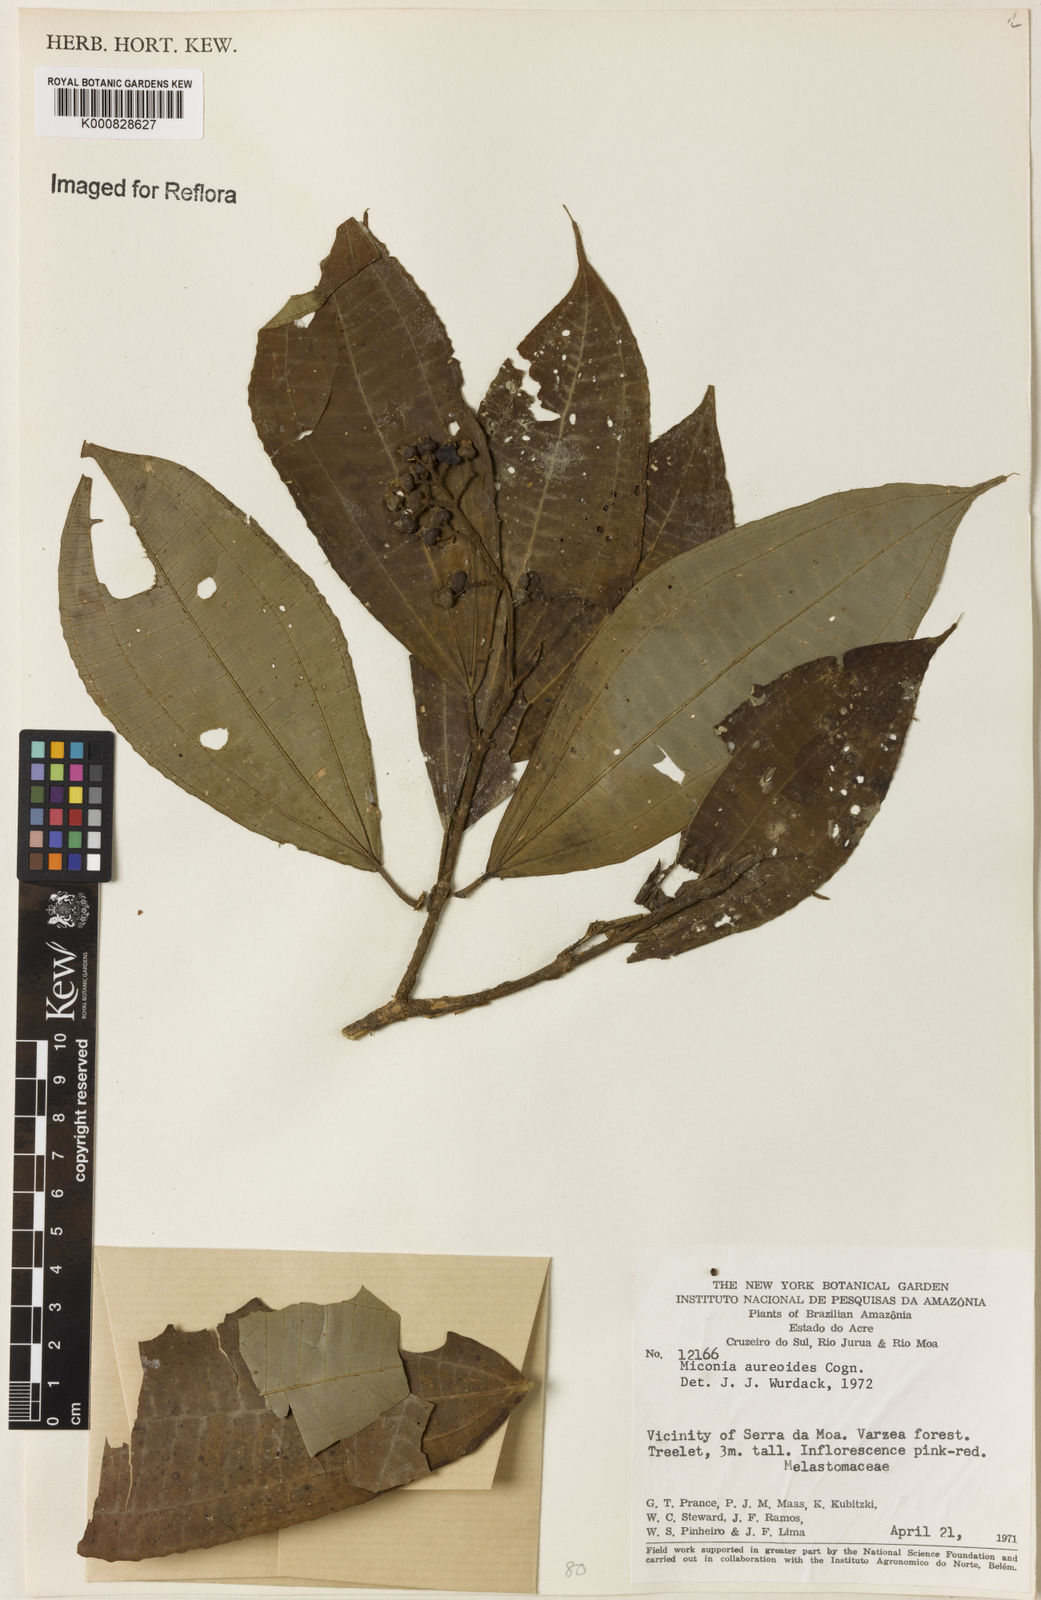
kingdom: Plantae
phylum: Tracheophyta
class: Magnoliopsida
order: Myrtales
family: Melastomataceae
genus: Miconia
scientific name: Miconia aureoides
